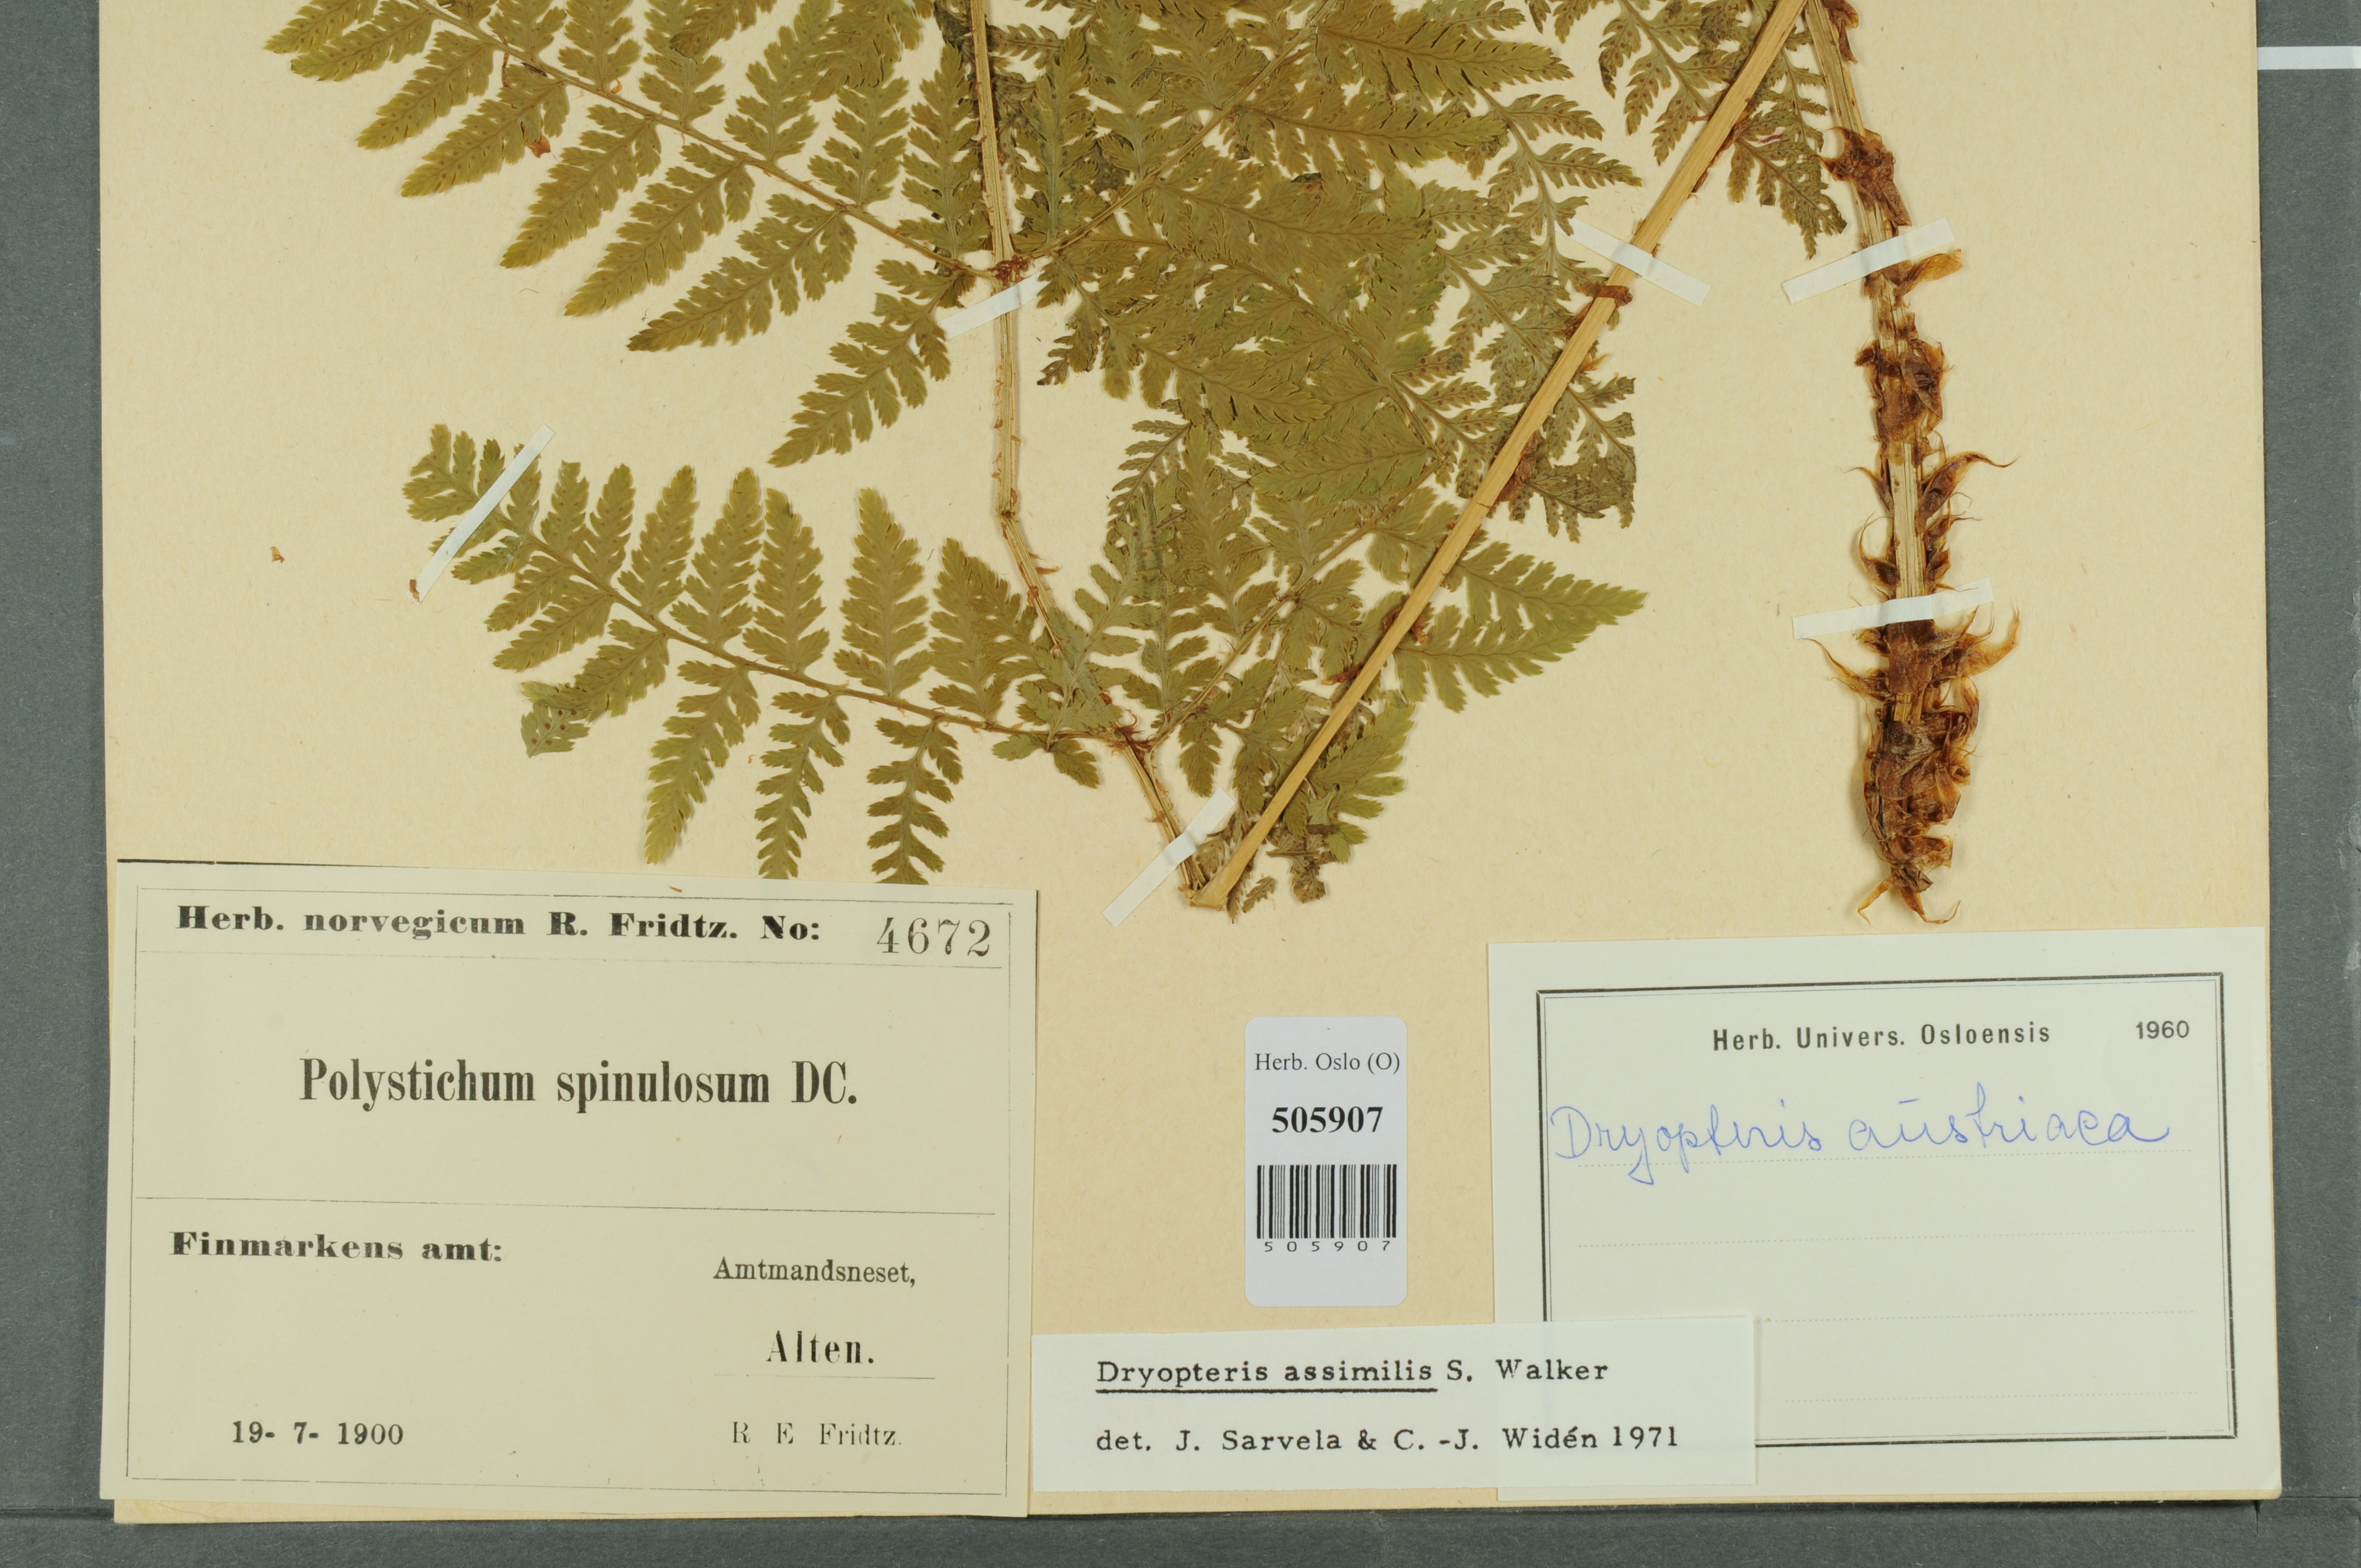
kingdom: Plantae
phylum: Tracheophyta
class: Polypodiopsida
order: Polypodiales
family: Dryopteridaceae
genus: Dryopteris
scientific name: Dryopteris expansa
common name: Northern buckler fern
